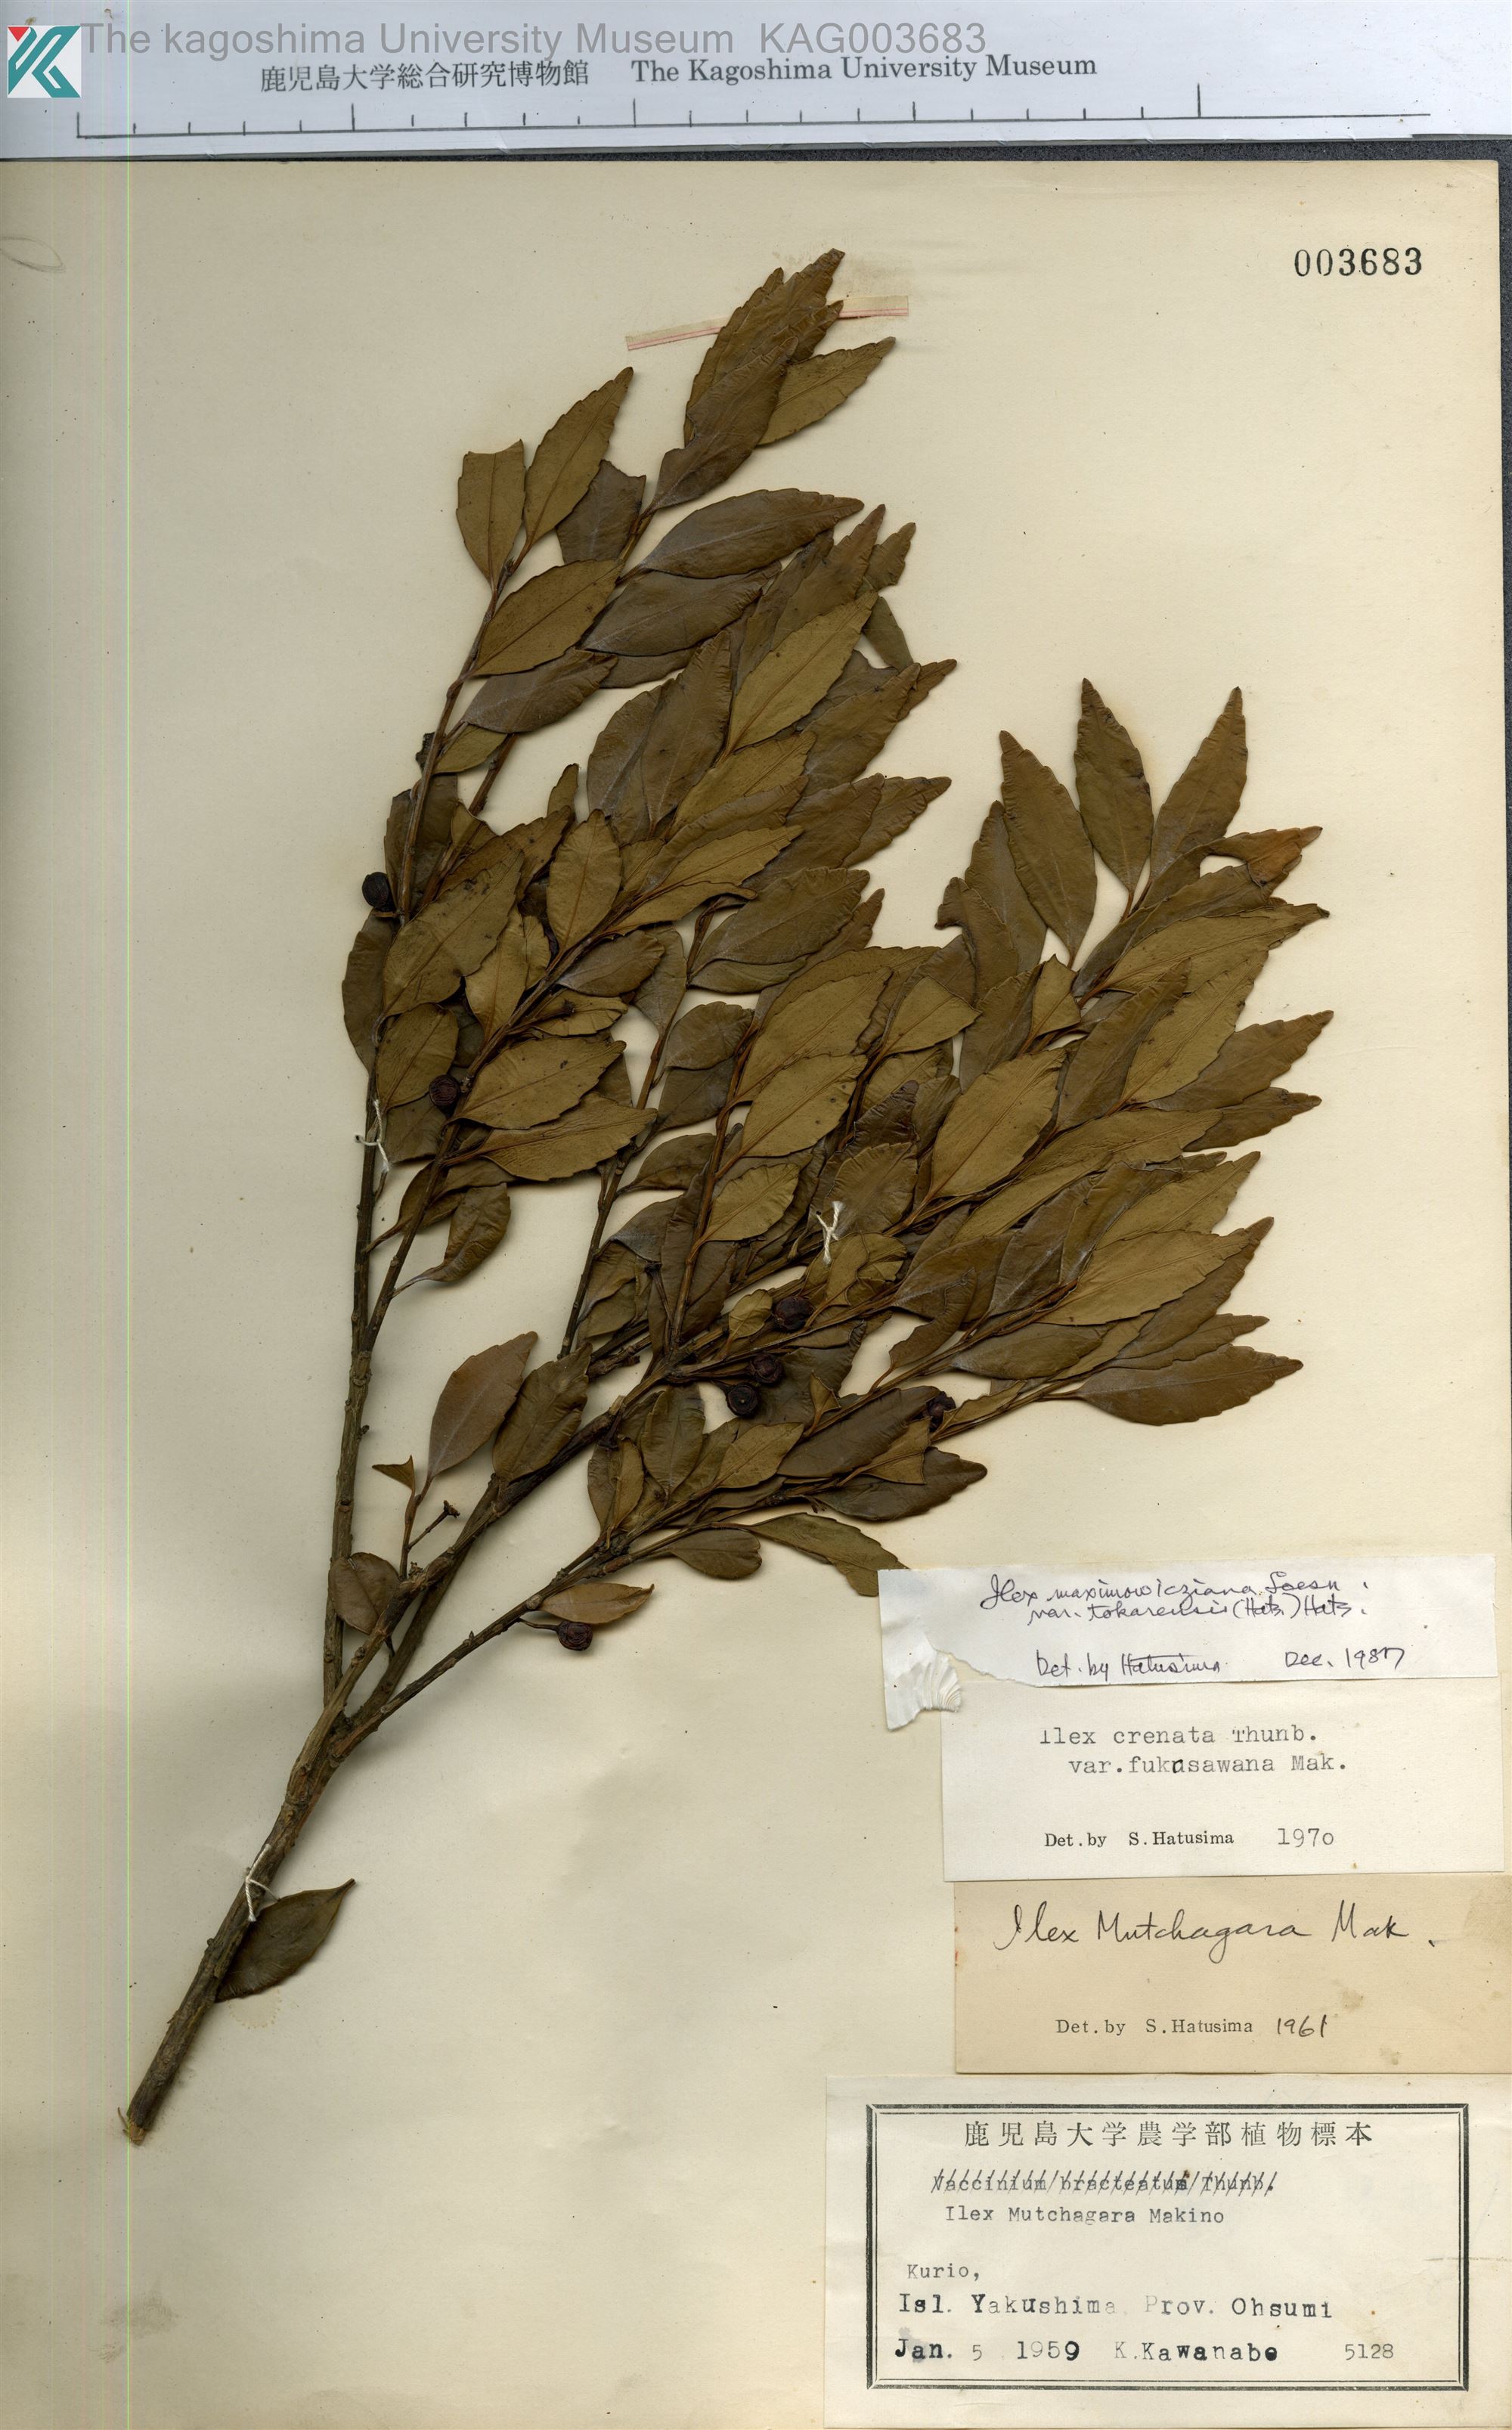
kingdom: Plantae
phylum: Tracheophyta
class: Magnoliopsida
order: Aquifoliales
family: Aquifoliaceae
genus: Ilex
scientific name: Ilex crenata
